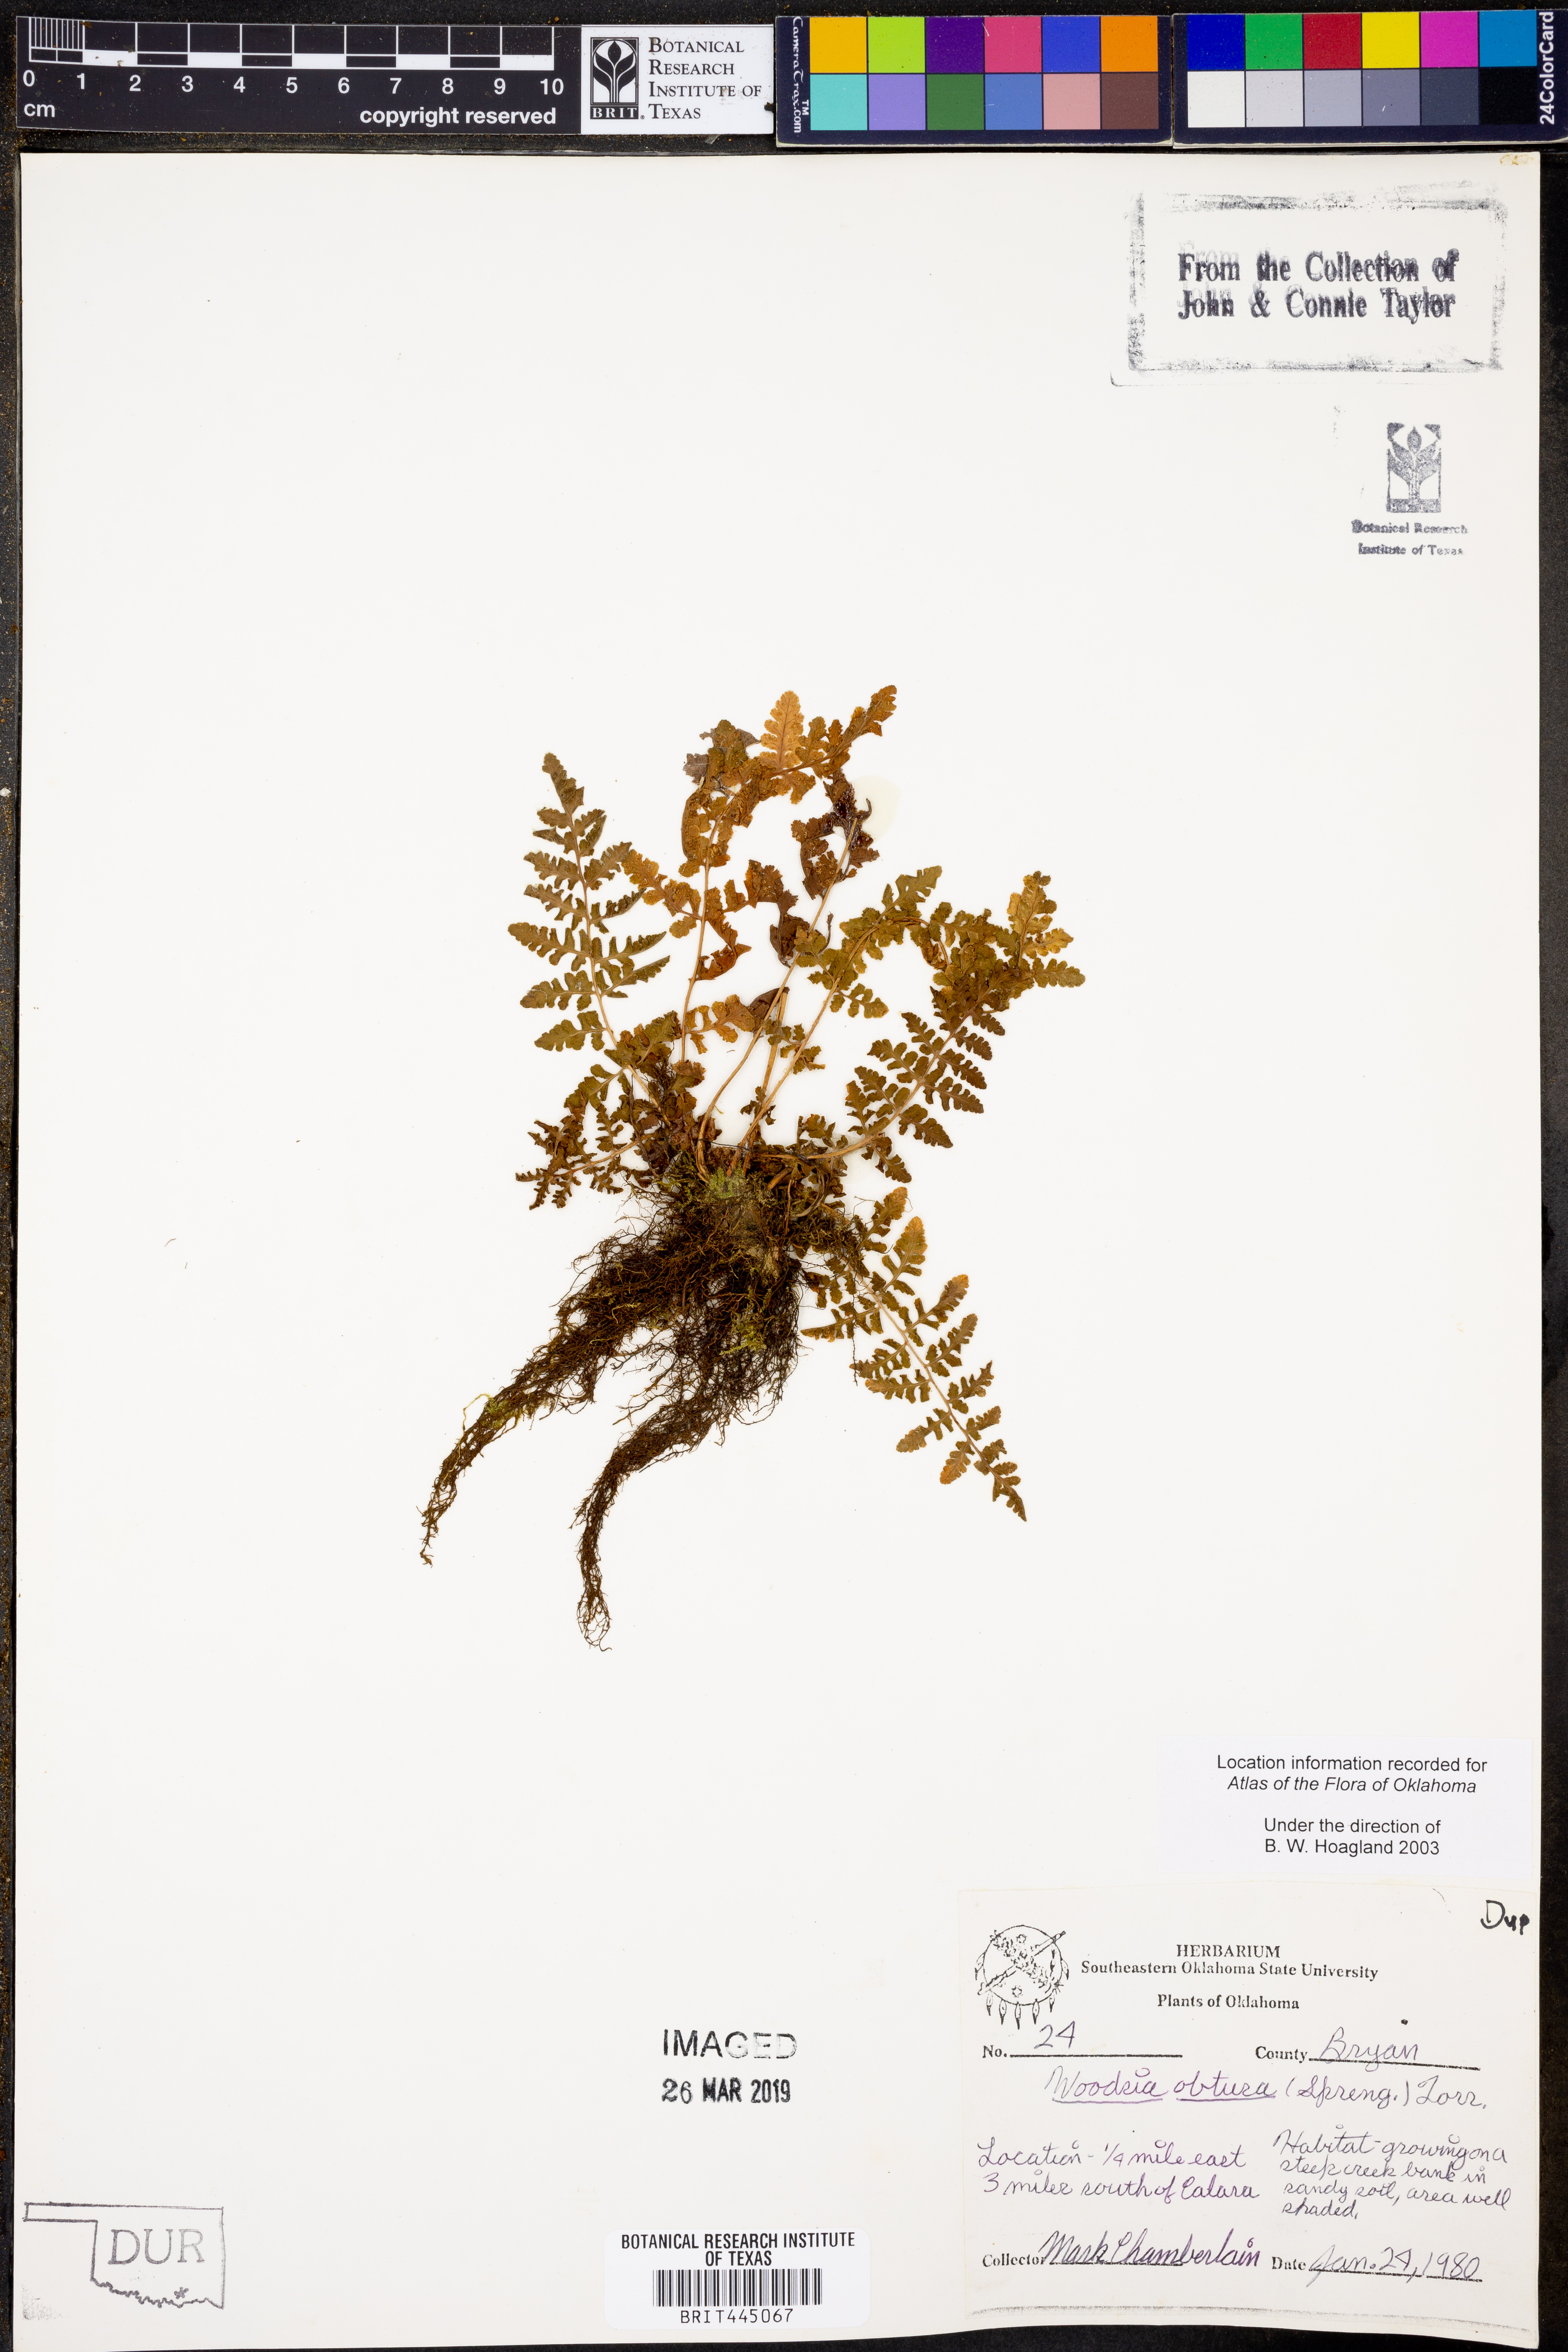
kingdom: Plantae
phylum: Tracheophyta
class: Polypodiopsida
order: Polypodiales
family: Woodsiaceae
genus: Physematium
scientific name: Physematium obtusum
